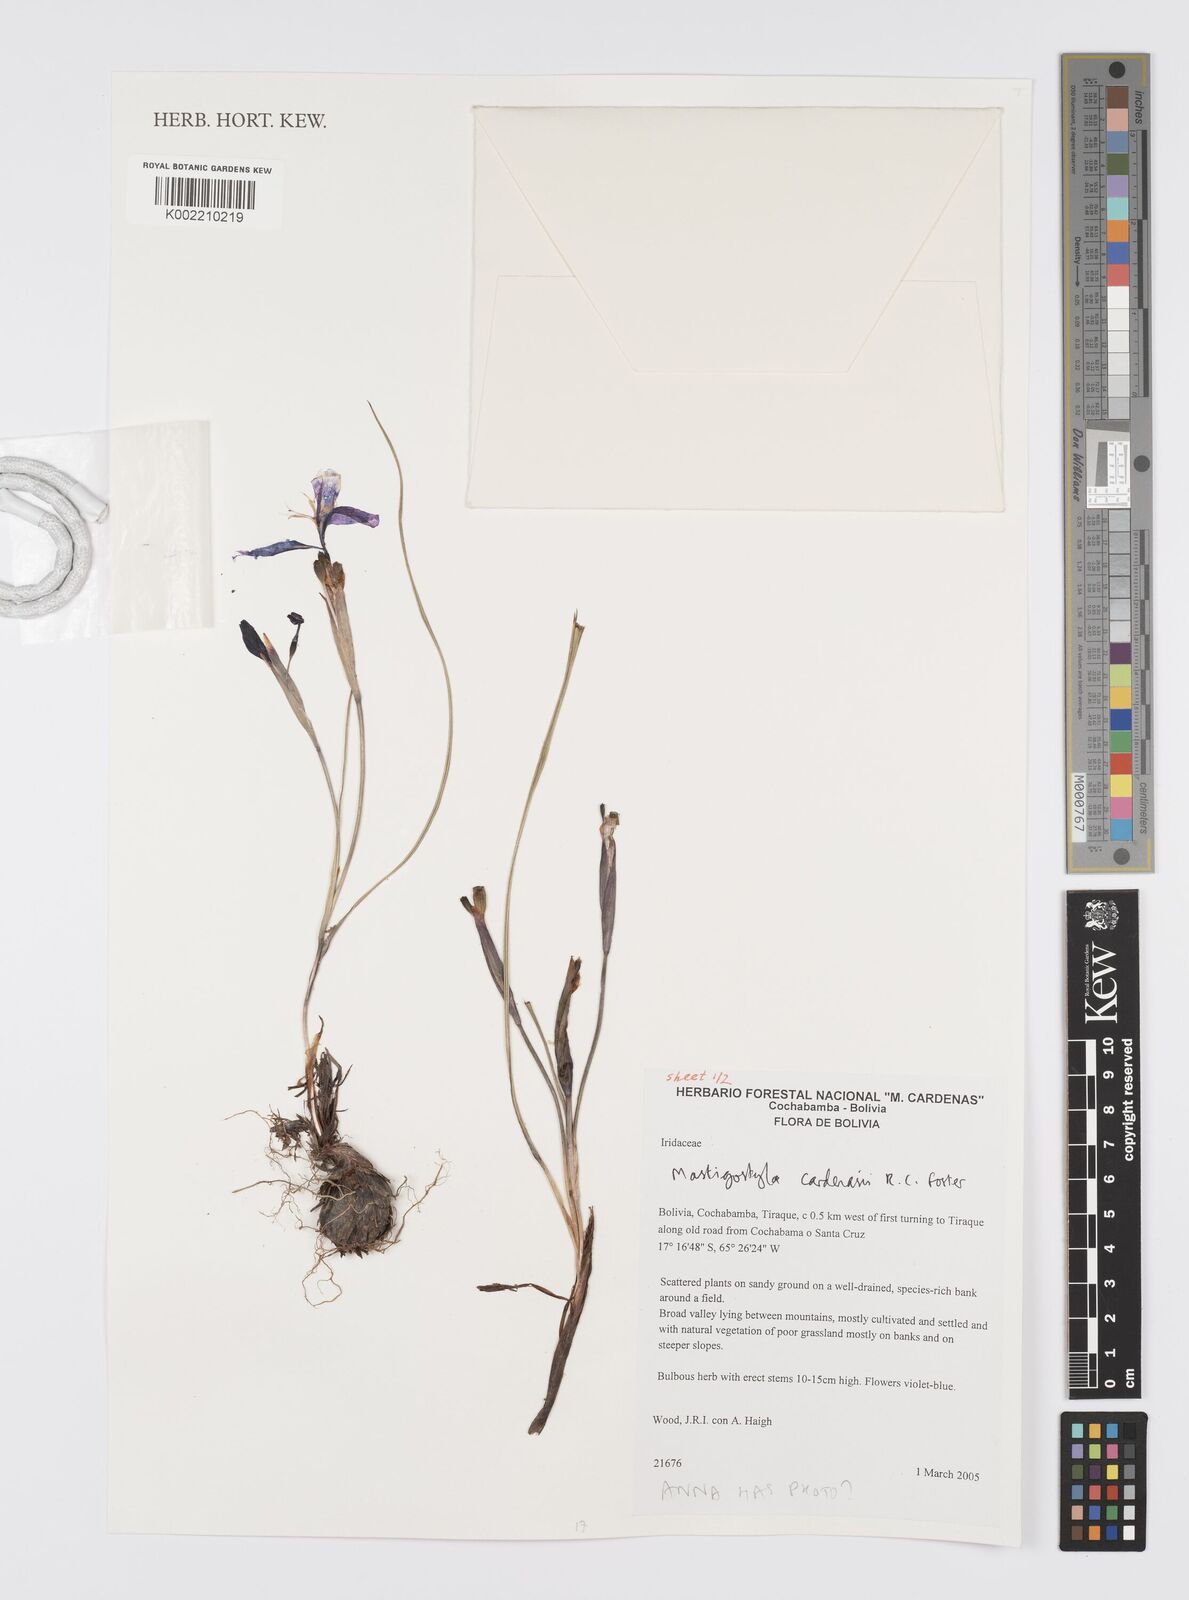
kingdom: Plantae
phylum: Tracheophyta
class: Liliopsida
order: Asparagales
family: Iridaceae
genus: Mastigostyla
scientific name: Mastigostyla cardenasii
